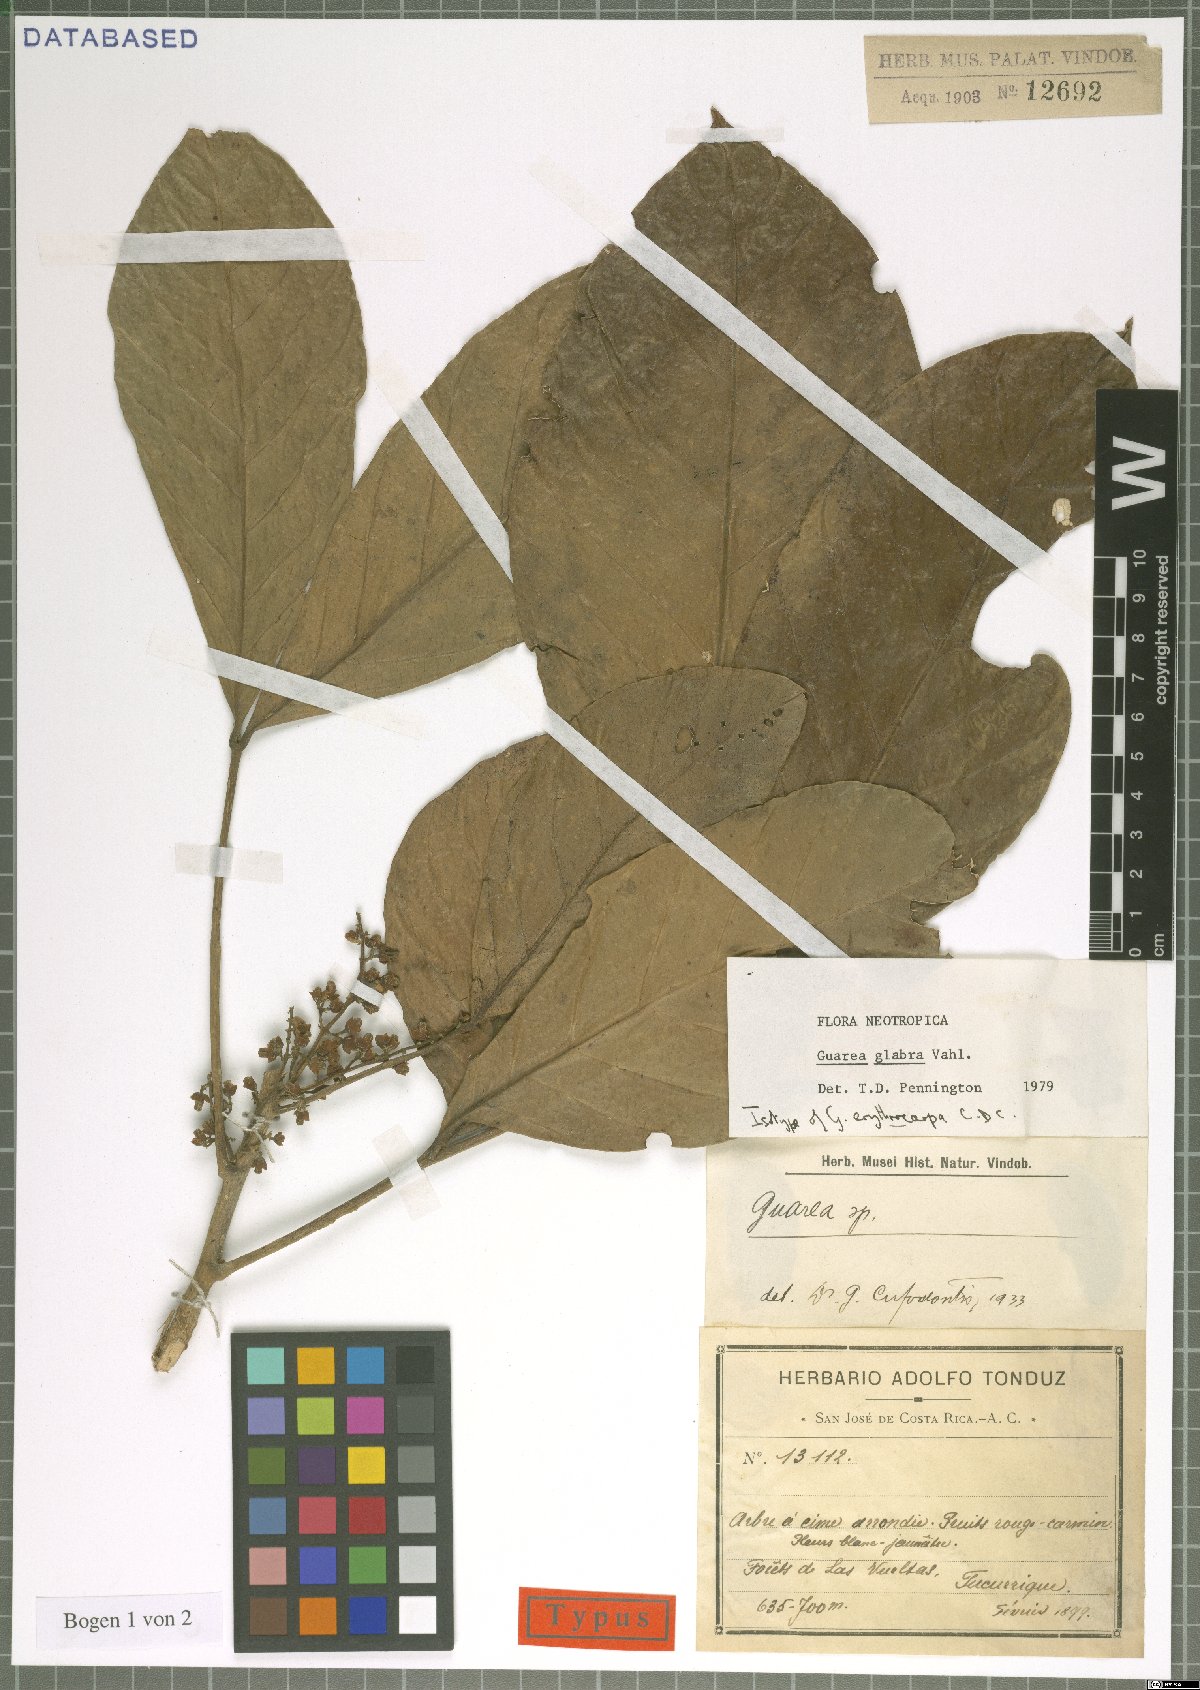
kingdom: Plantae
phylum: Tracheophyta
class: Magnoliopsida
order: Sapindales
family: Meliaceae
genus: Guarea
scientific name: Guarea glabra
